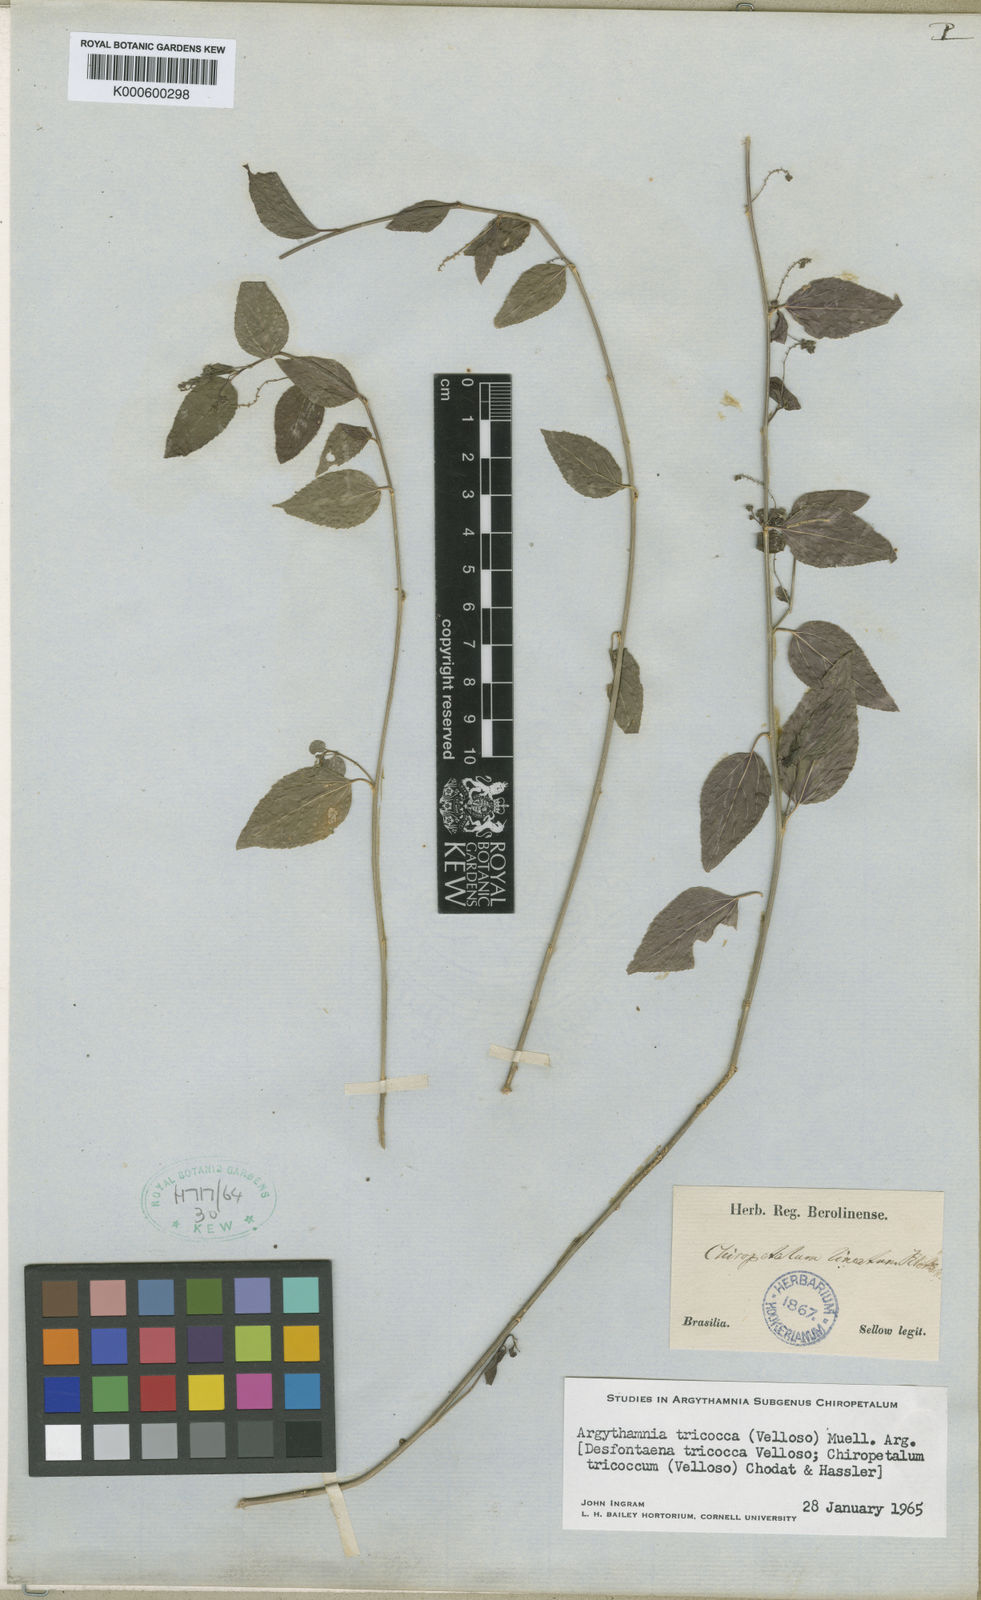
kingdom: Plantae
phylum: Tracheophyta
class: Magnoliopsida
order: Malpighiales
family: Euphorbiaceae
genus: Chiropetalum
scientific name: Chiropetalum tricoccum
